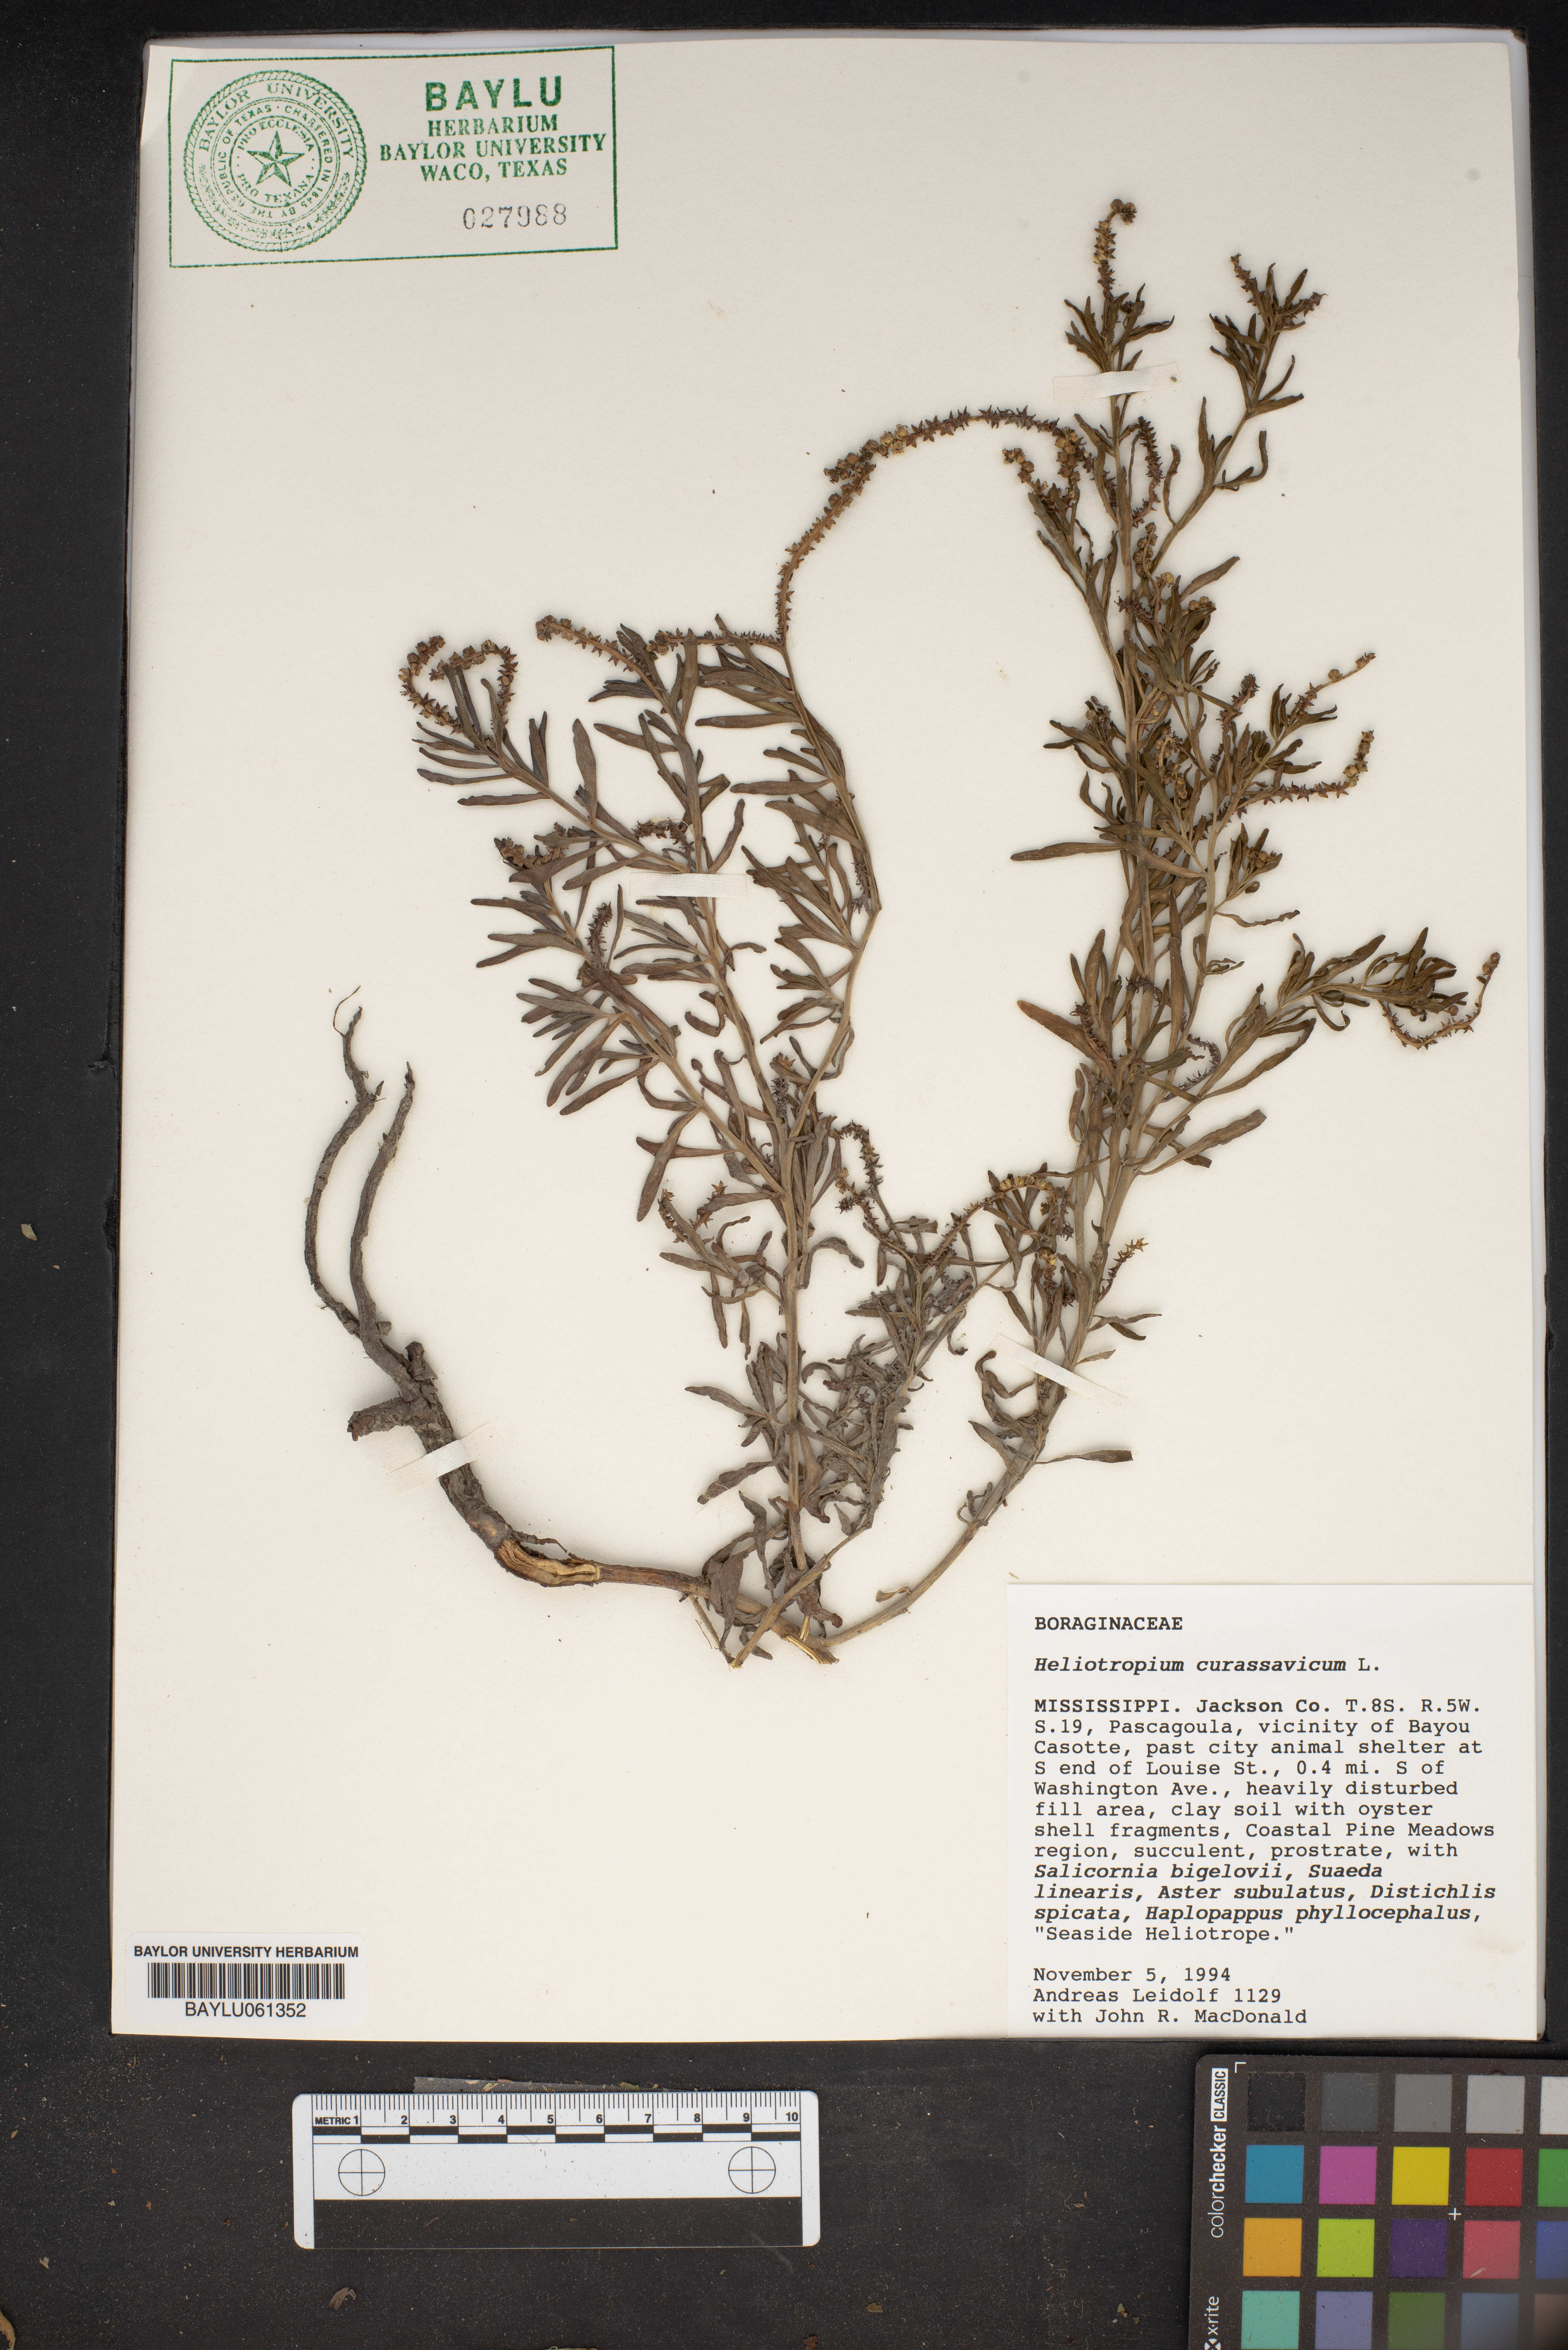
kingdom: Plantae
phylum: Tracheophyta
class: Magnoliopsida
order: Boraginales
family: Heliotropiaceae
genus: Heliotropium
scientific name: Heliotropium curassavicum
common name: Seaside heliotrope
